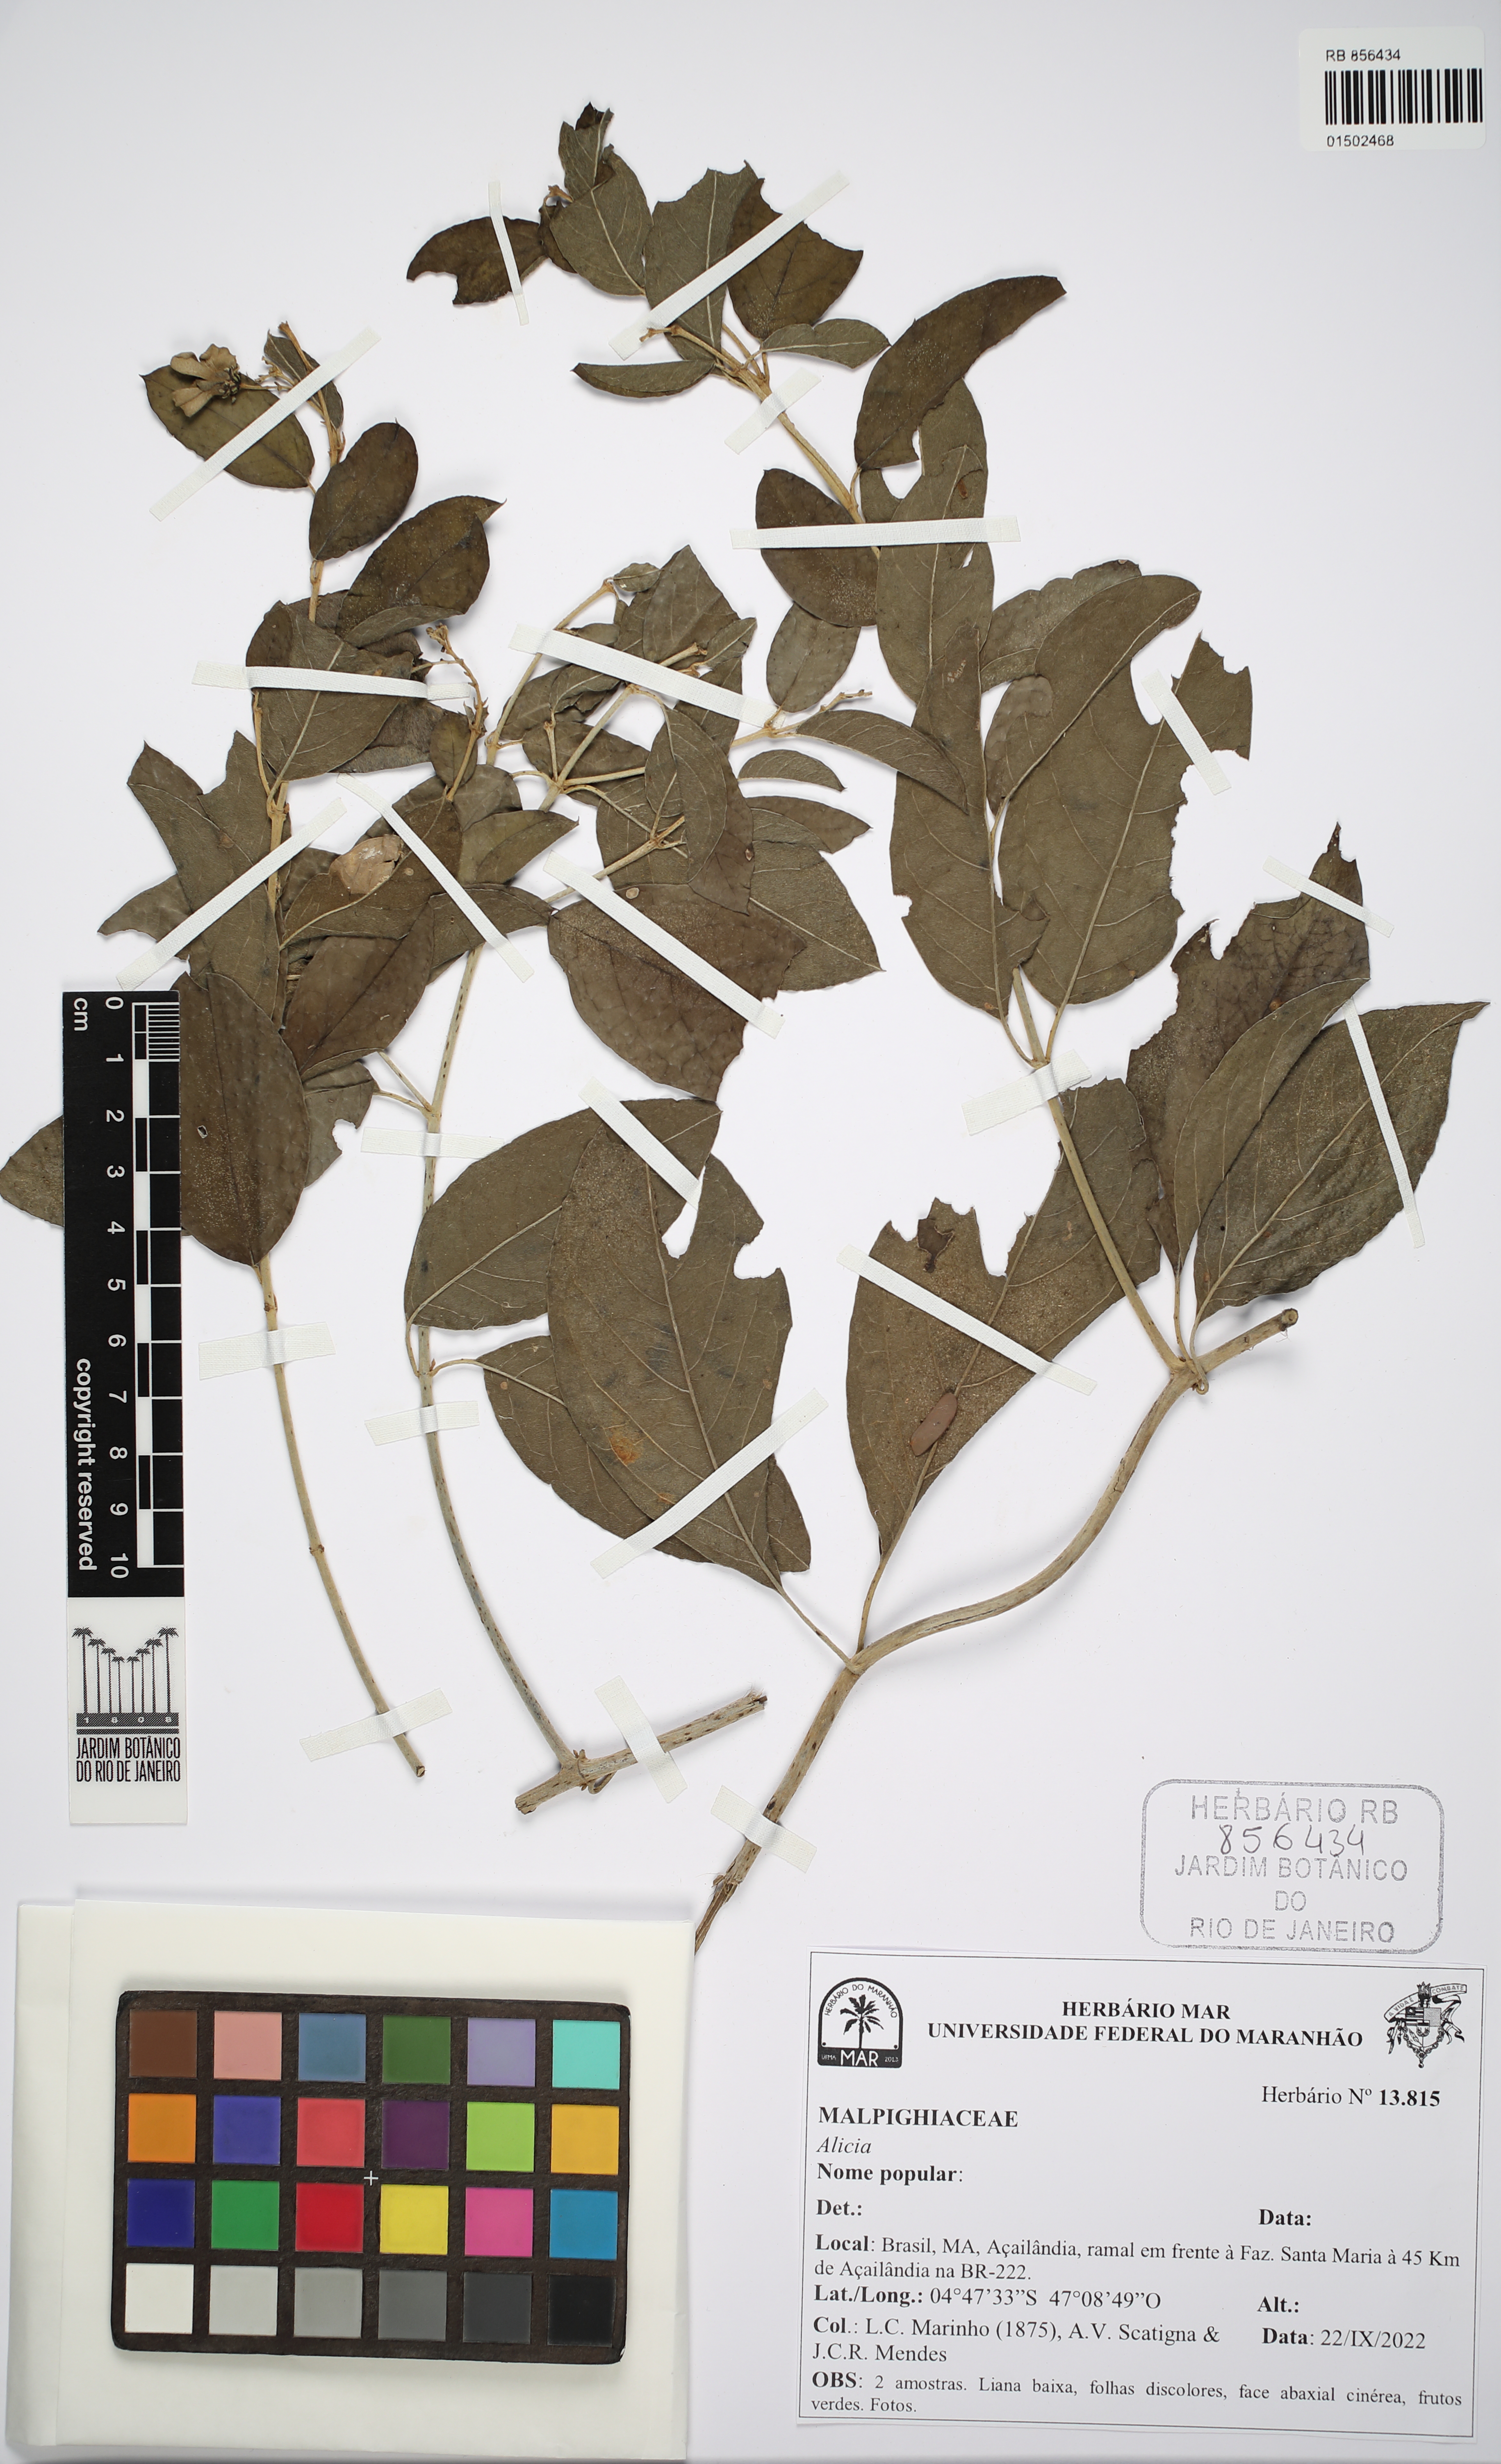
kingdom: Plantae
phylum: Tracheophyta
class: Magnoliopsida
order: Malpighiales
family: Malpighiaceae
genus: Alicia
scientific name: Alicia
